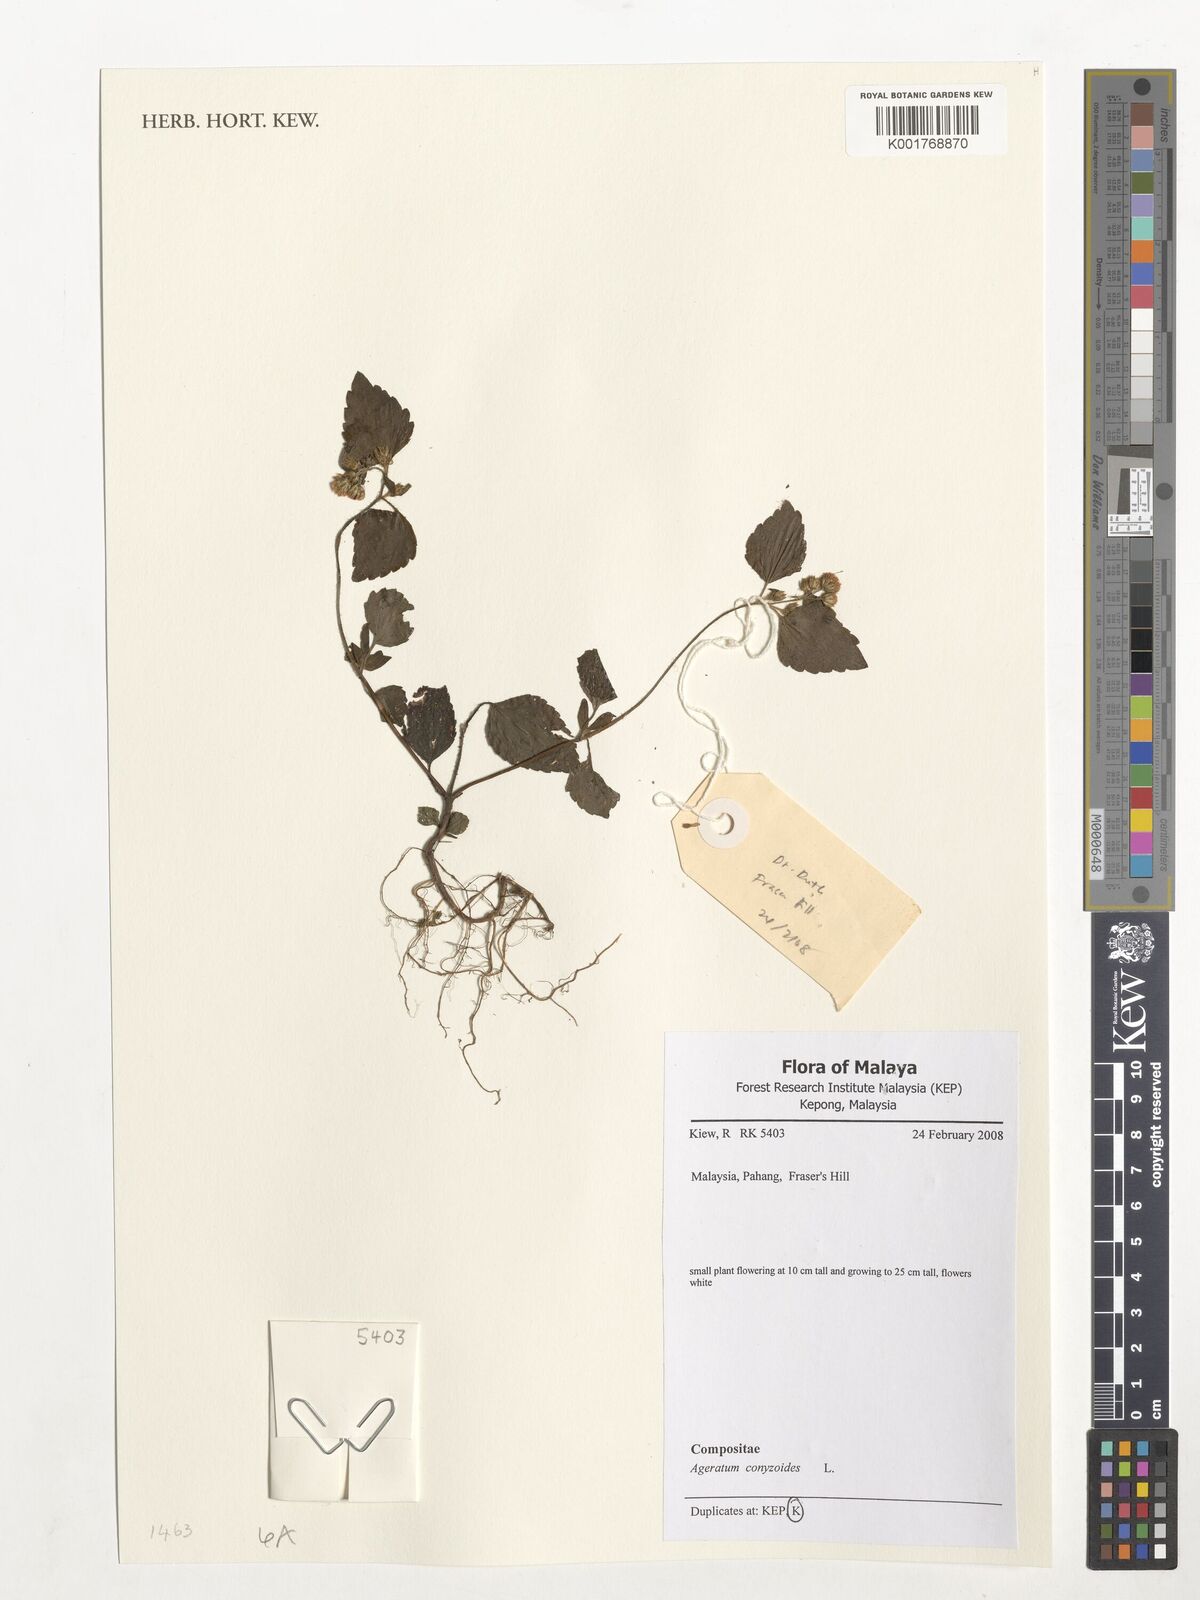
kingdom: Plantae
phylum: Tracheophyta
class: Magnoliopsida
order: Asterales
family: Asteraceae
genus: Ageratum
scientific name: Ageratum conyzoides
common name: Tropical whiteweed
